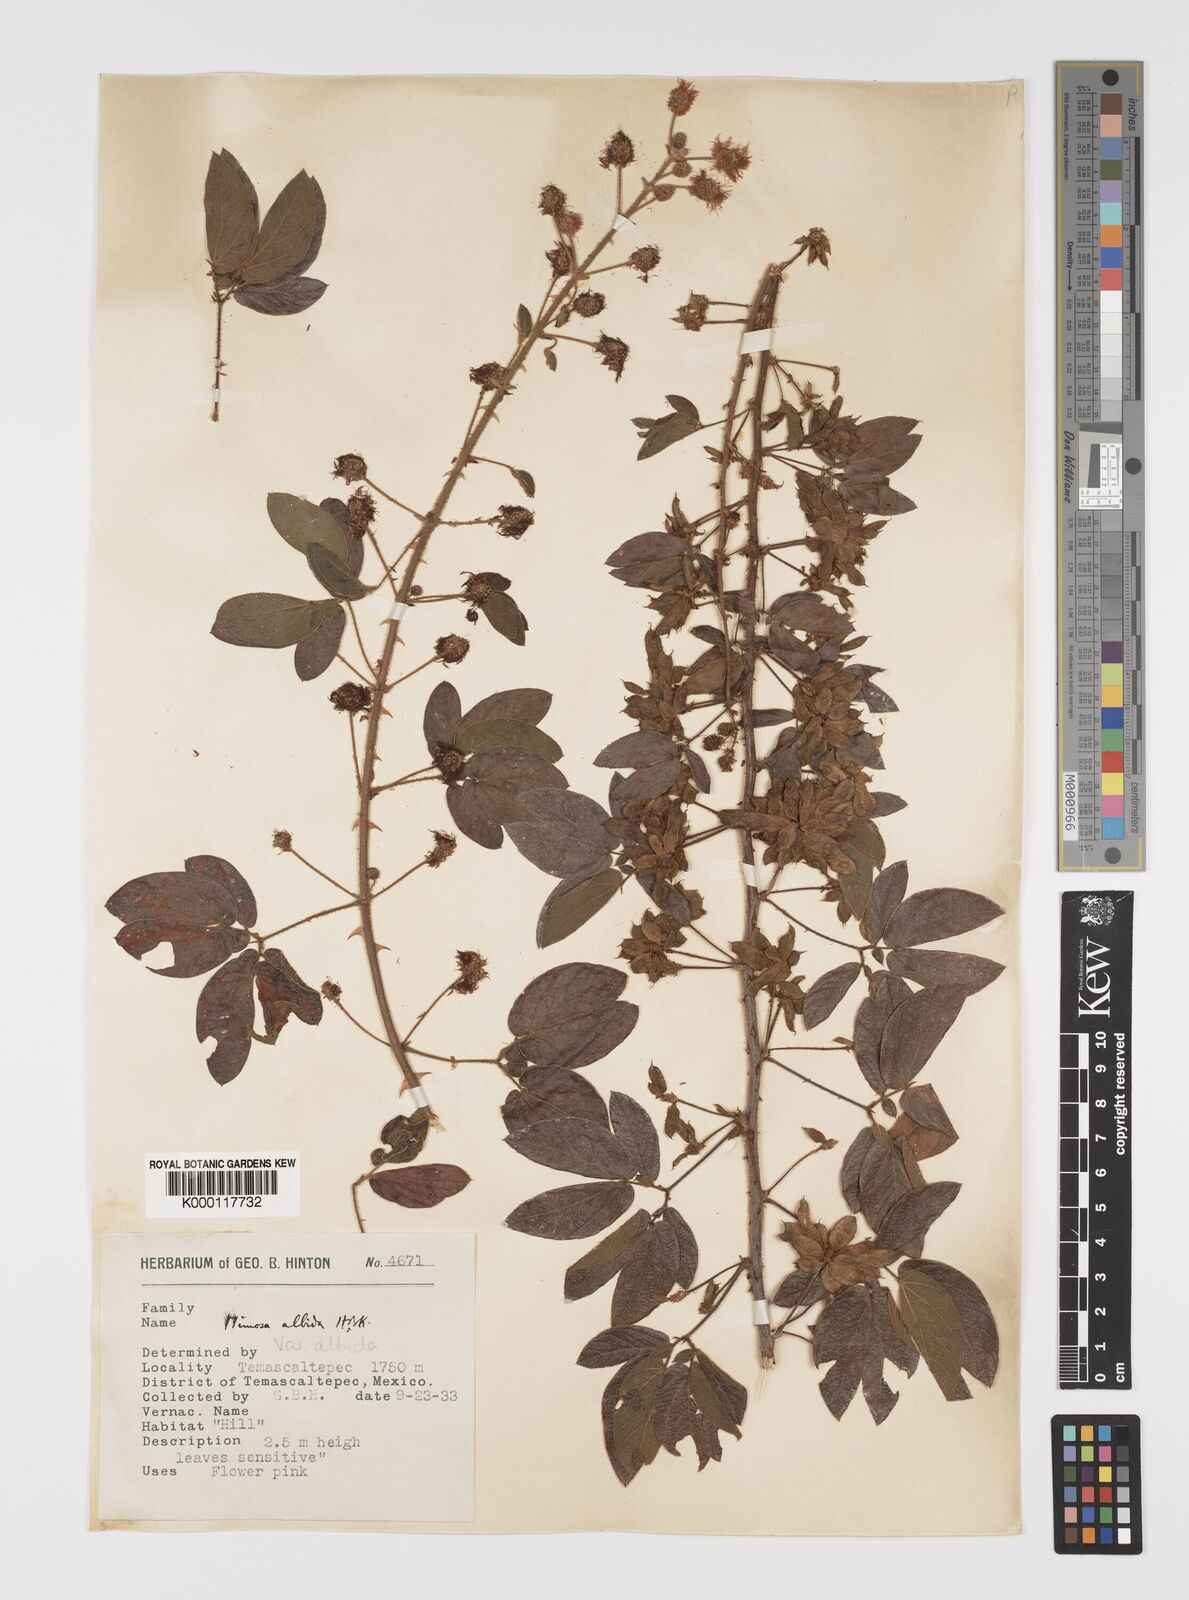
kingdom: Plantae
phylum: Tracheophyta
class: Magnoliopsida
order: Fabales
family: Fabaceae
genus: Mimosa
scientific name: Mimosa albida
